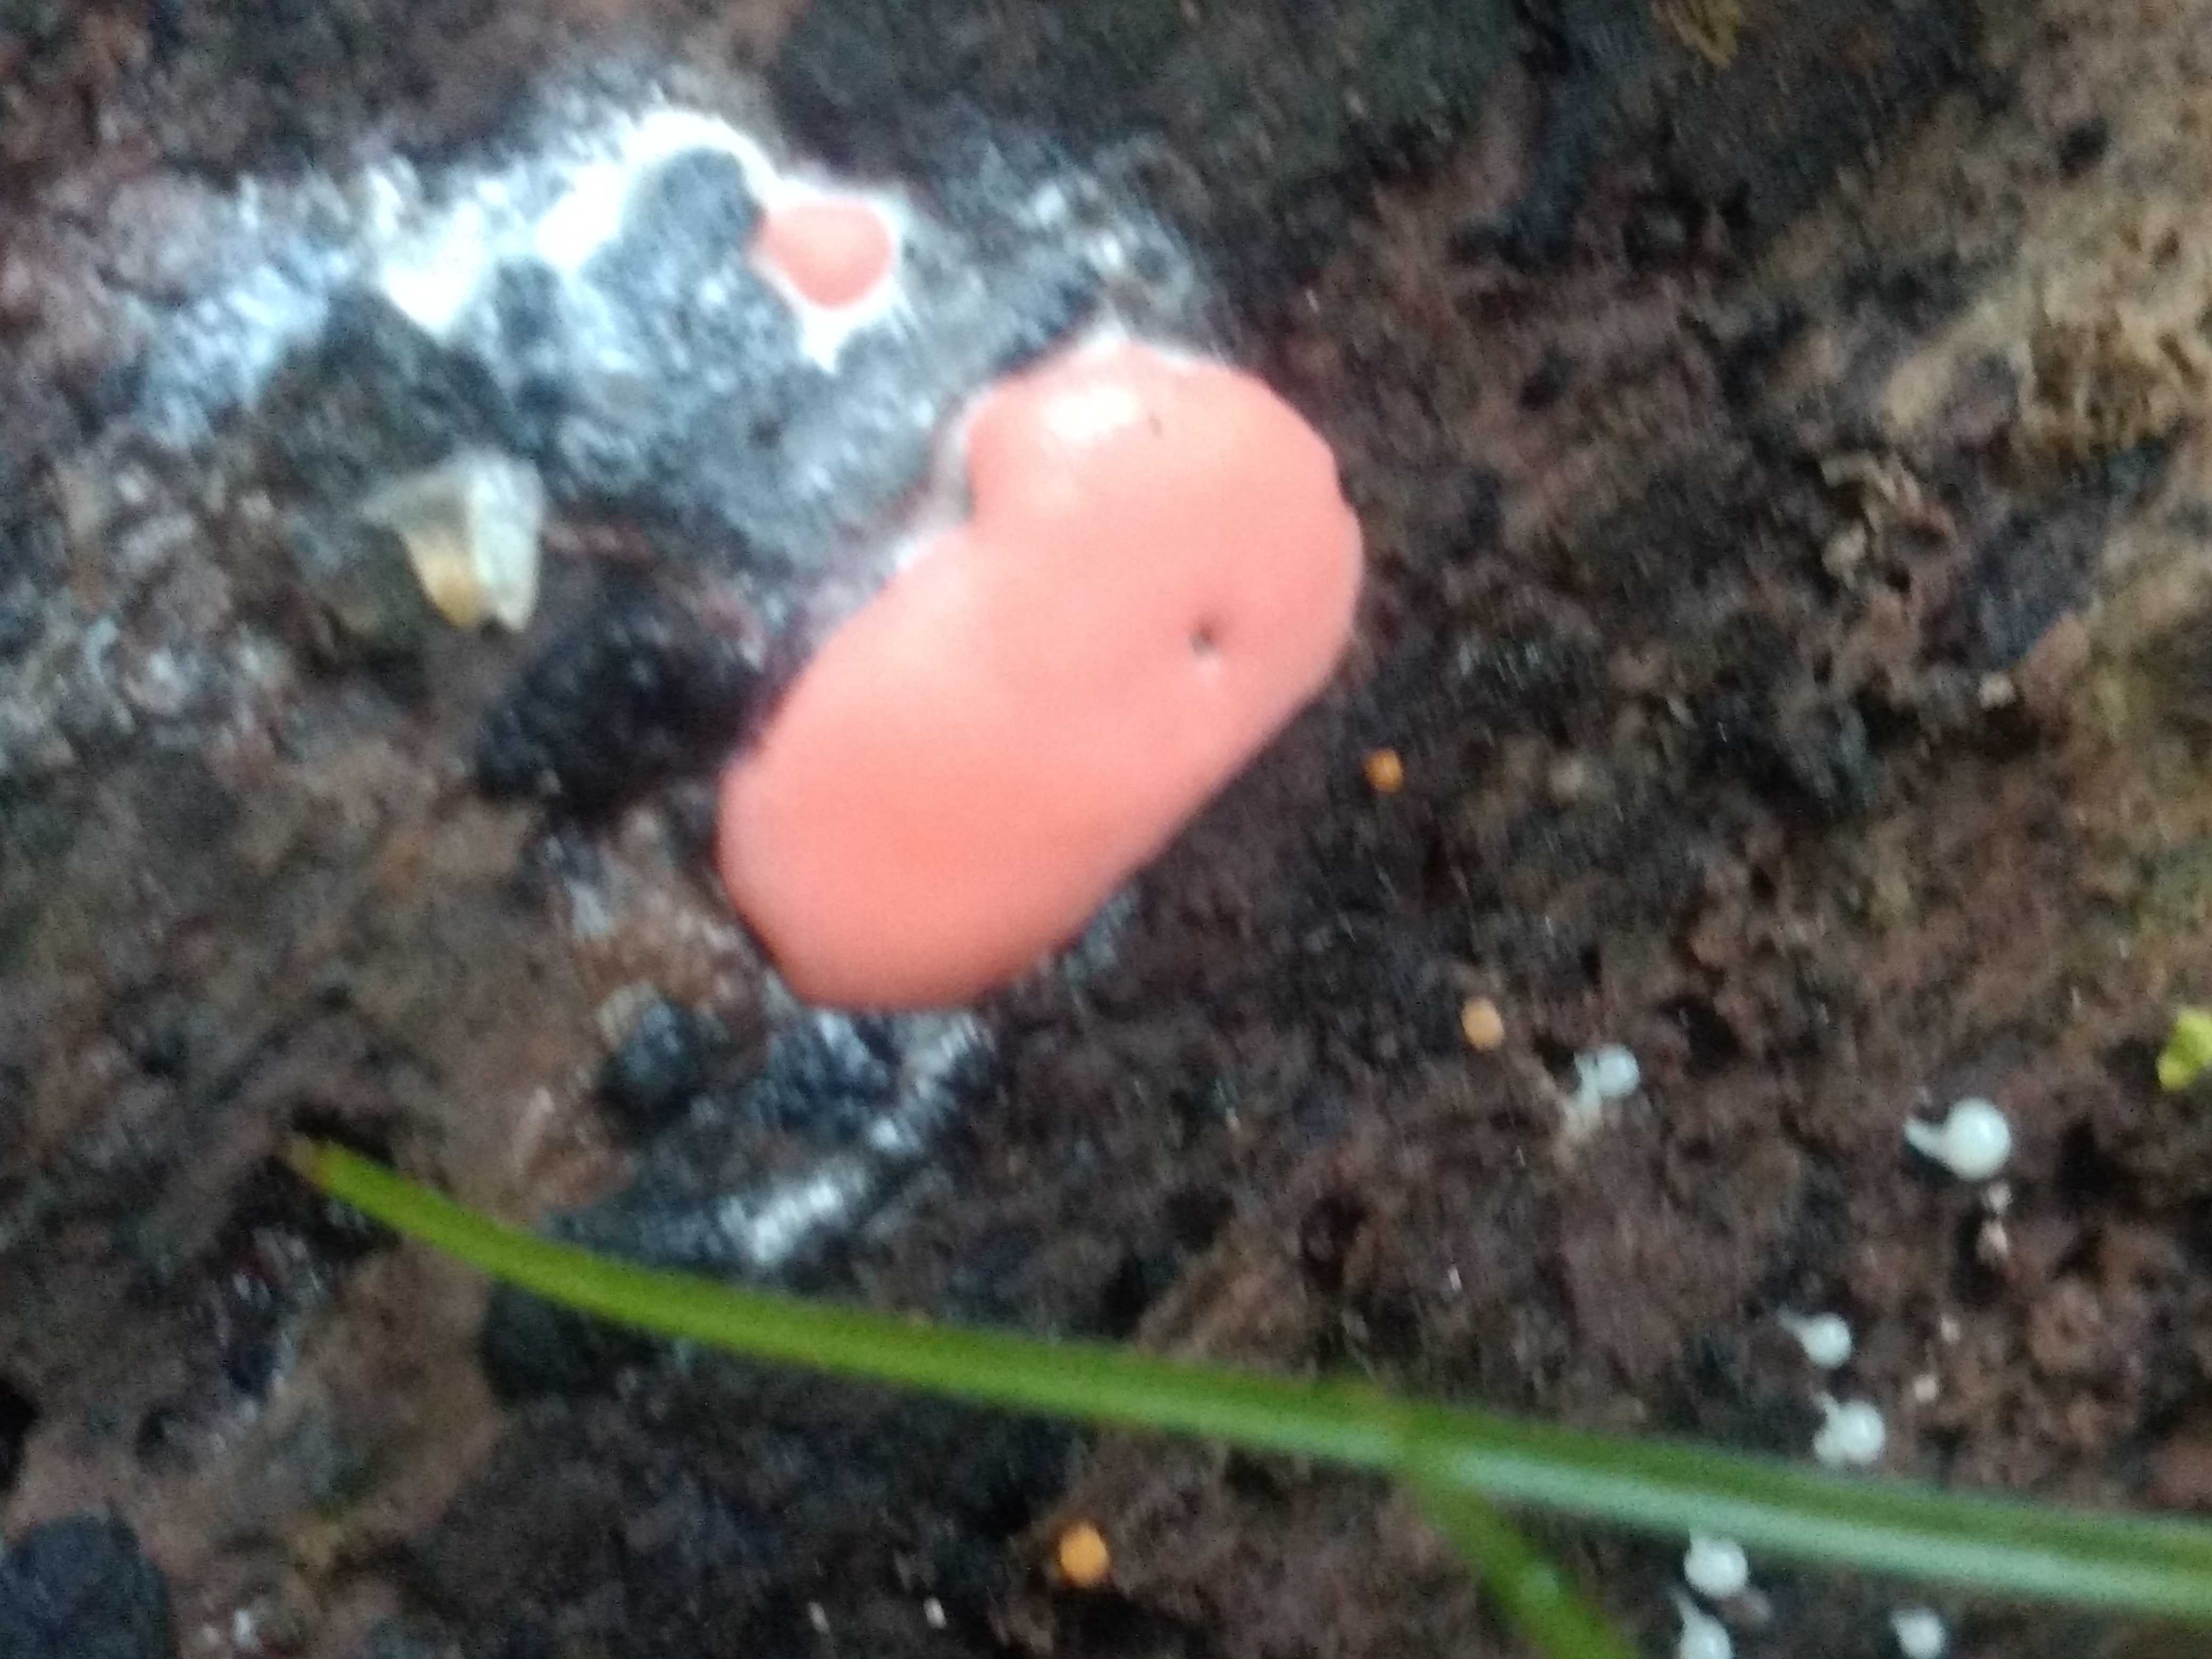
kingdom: Protozoa
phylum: Mycetozoa
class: Myxomycetes
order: Trichiales
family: Dictydiaethaliaceae
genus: Dictydiaethalium
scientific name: Dictydiaethalium plumbeum
